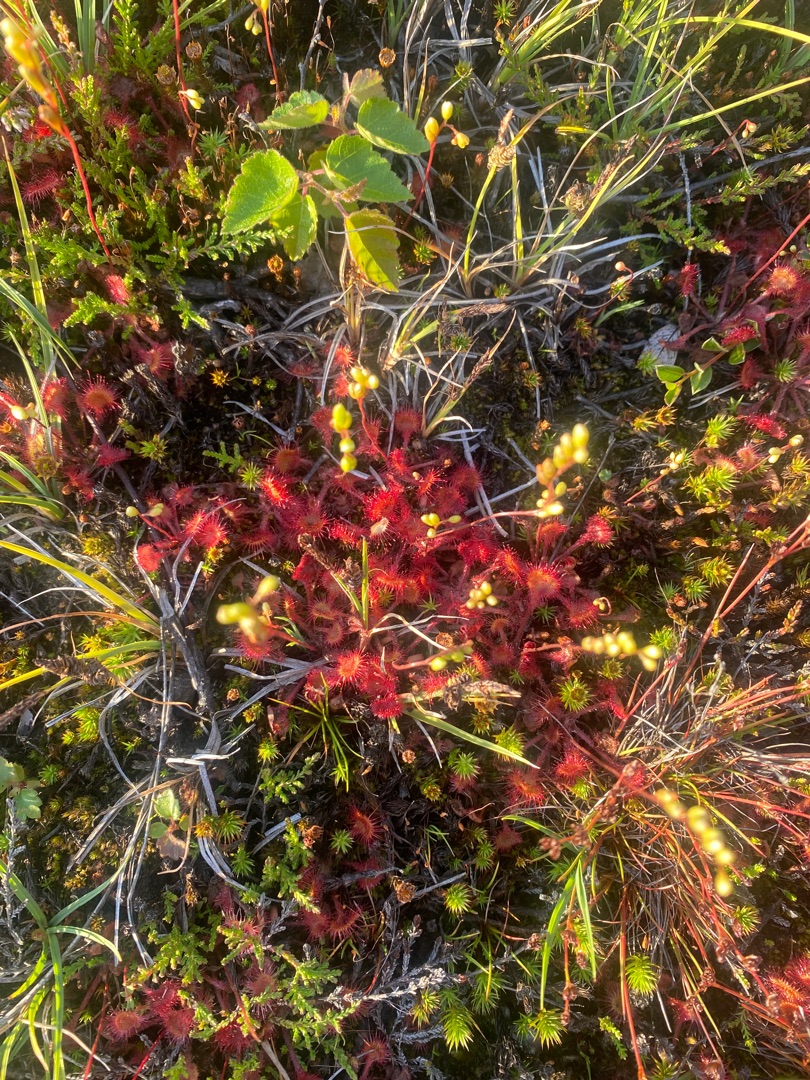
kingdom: Plantae
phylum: Tracheophyta
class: Magnoliopsida
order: Caryophyllales
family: Droseraceae
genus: Drosera
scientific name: Drosera rotundifolia
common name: Rundbladet soldug
